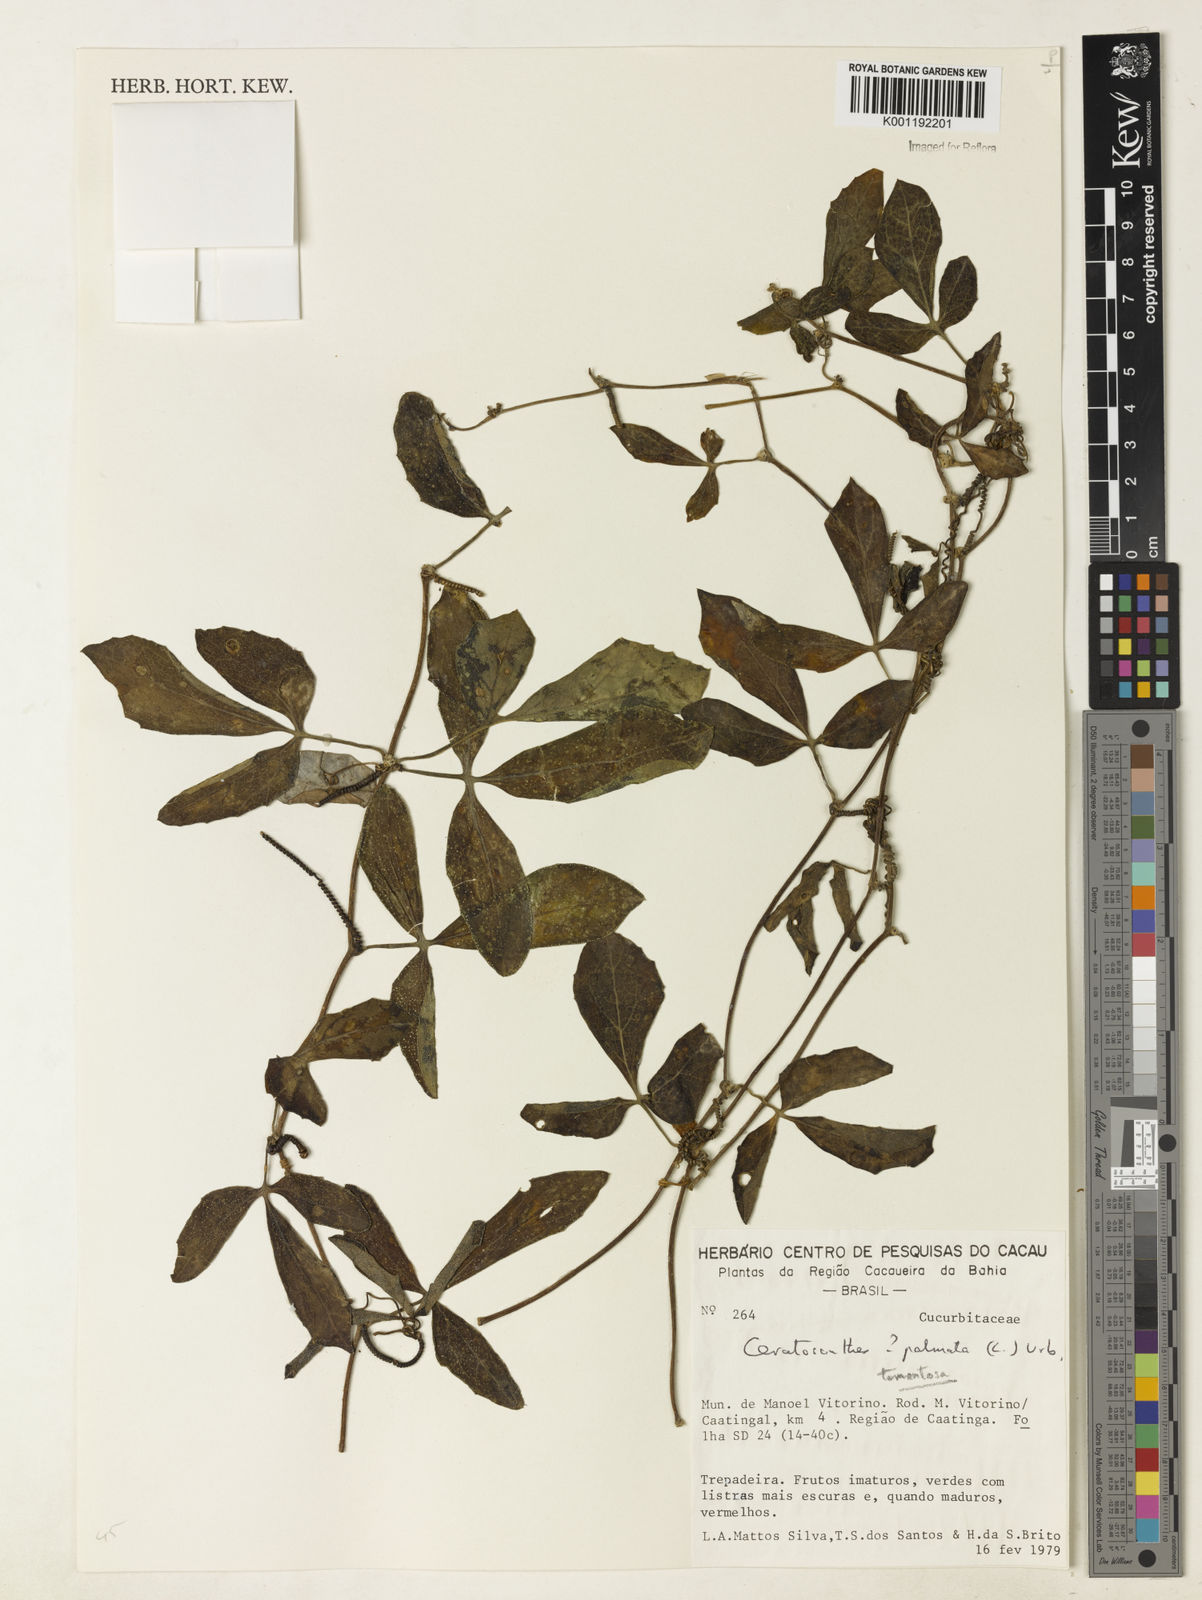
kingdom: Plantae
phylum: Tracheophyta
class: Magnoliopsida
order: Cucurbitales
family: Cucurbitaceae
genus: Ceratosanthes
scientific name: Ceratosanthes tomentosa
